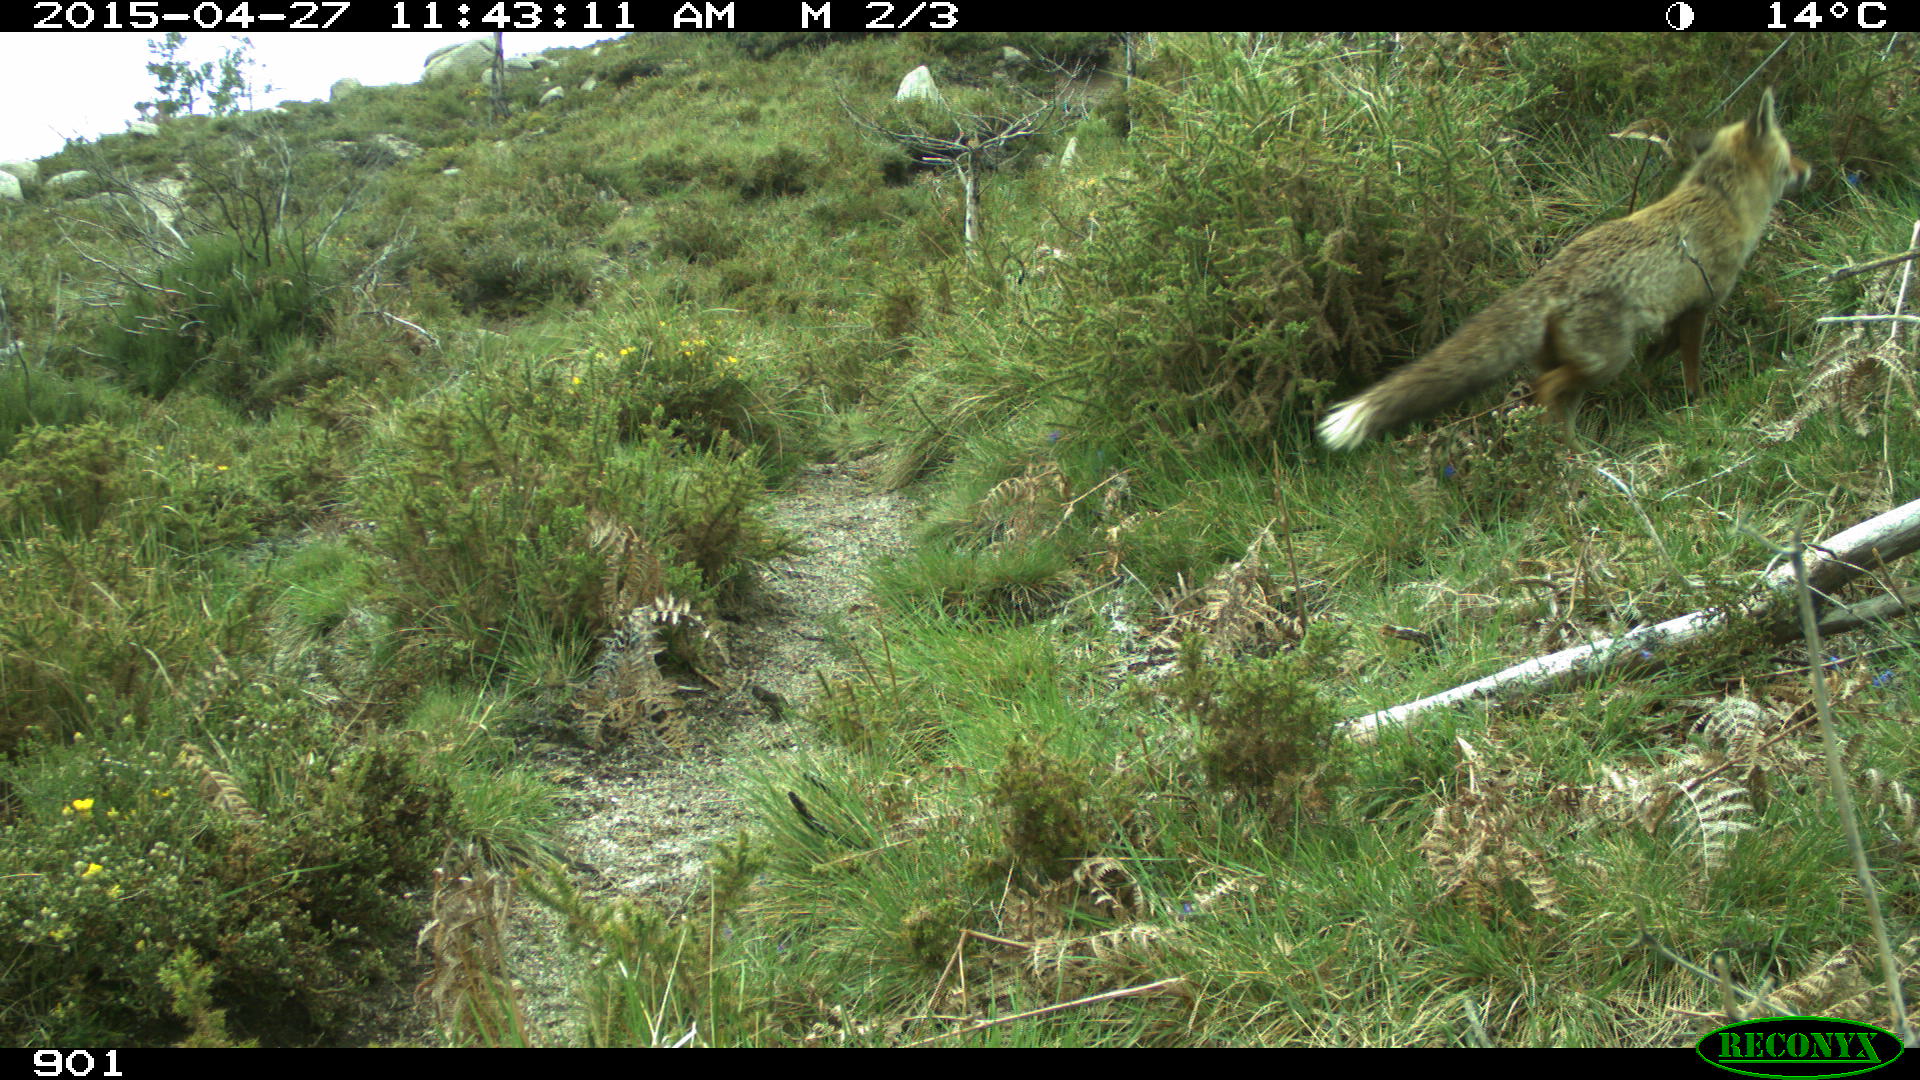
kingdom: Animalia
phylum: Chordata
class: Mammalia
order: Carnivora
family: Canidae
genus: Vulpes
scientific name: Vulpes vulpes
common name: Red fox
